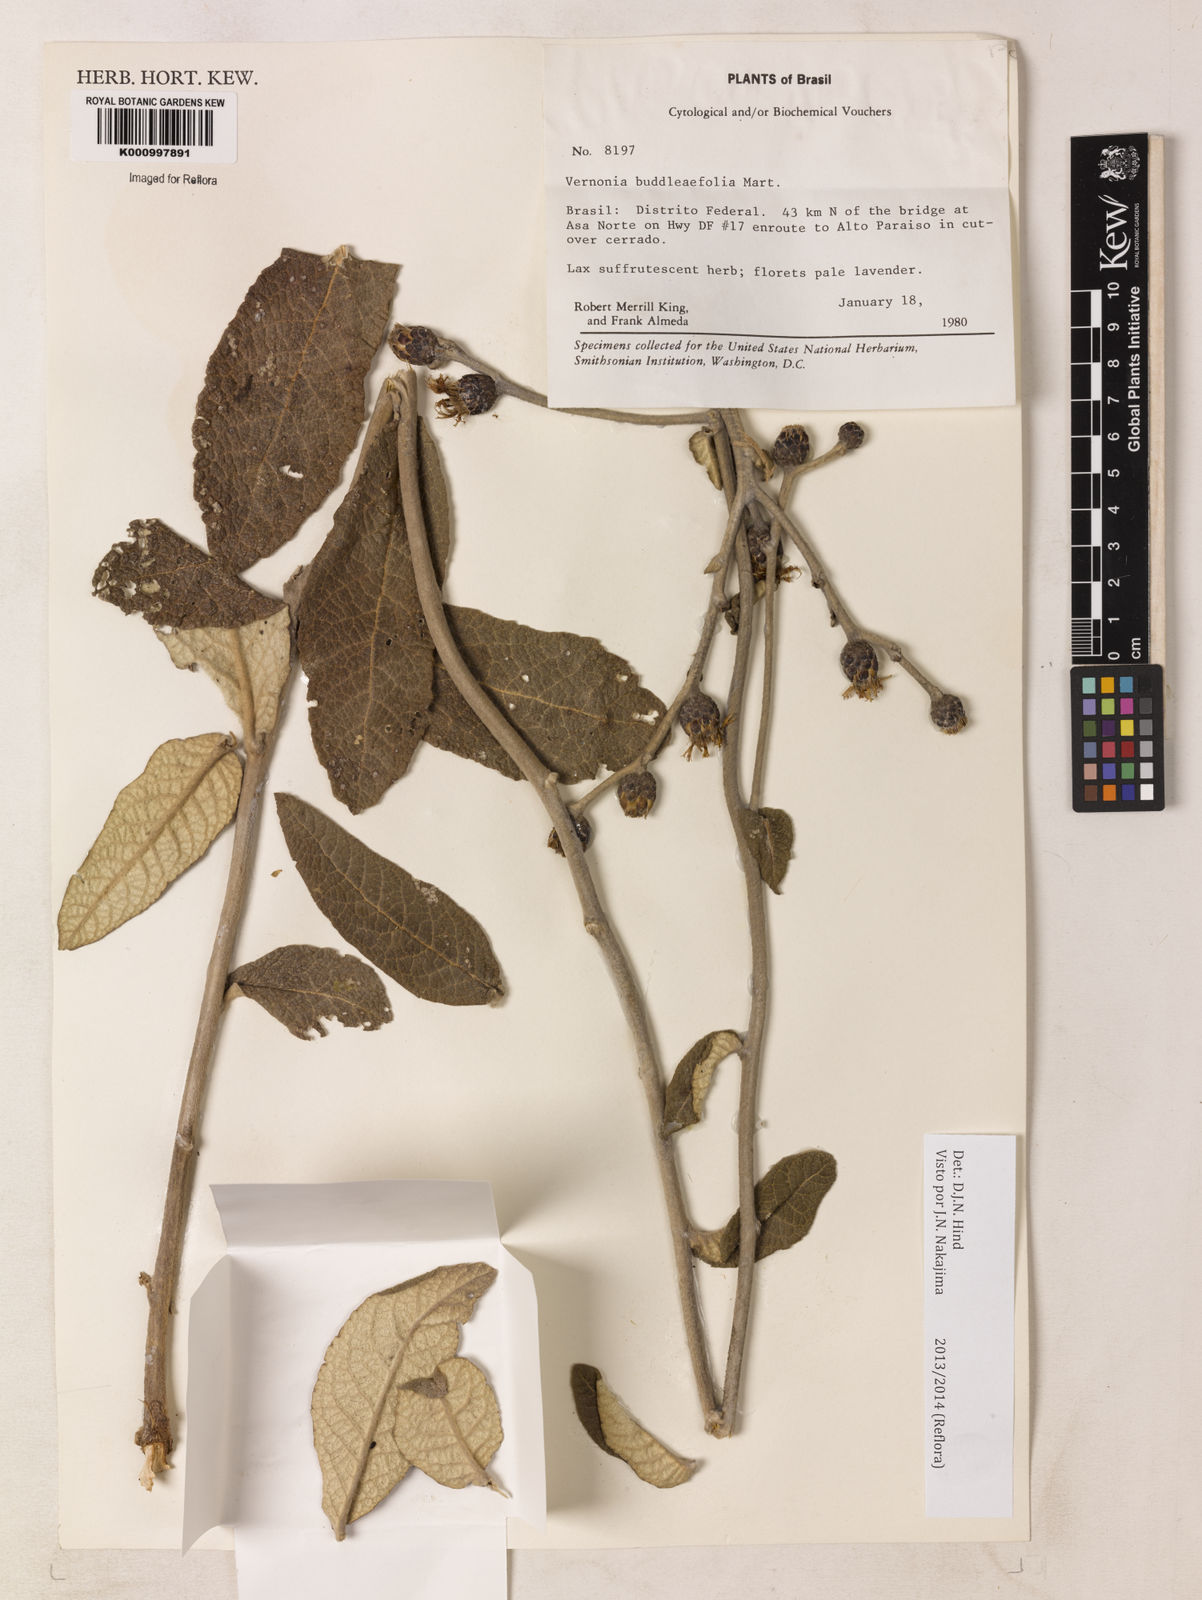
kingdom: Plantae
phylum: Tracheophyta
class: Magnoliopsida
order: Asterales
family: Asteraceae
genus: Lessingianthus
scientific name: Lessingianthus buddlejifolius
